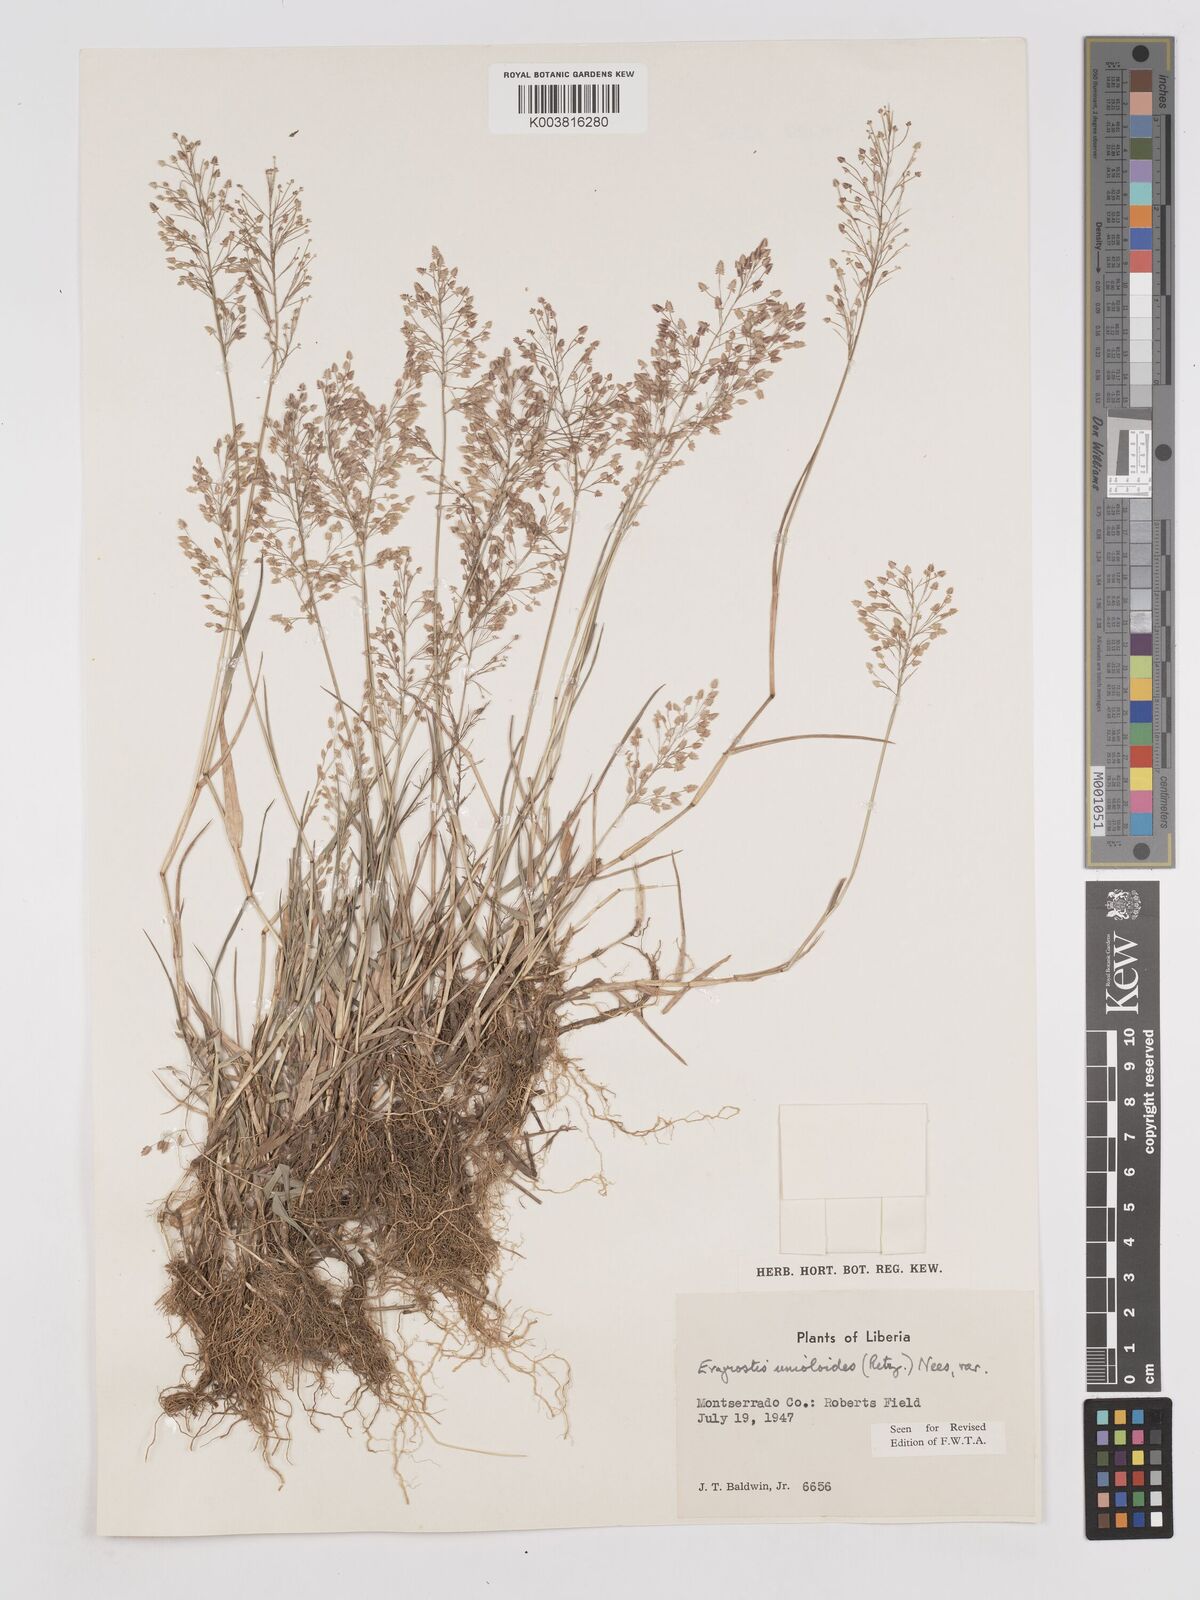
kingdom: Plantae
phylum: Tracheophyta
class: Liliopsida
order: Poales
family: Poaceae
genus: Eragrostis
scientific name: Eragrostis unioloides
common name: Chinese lovegrass
